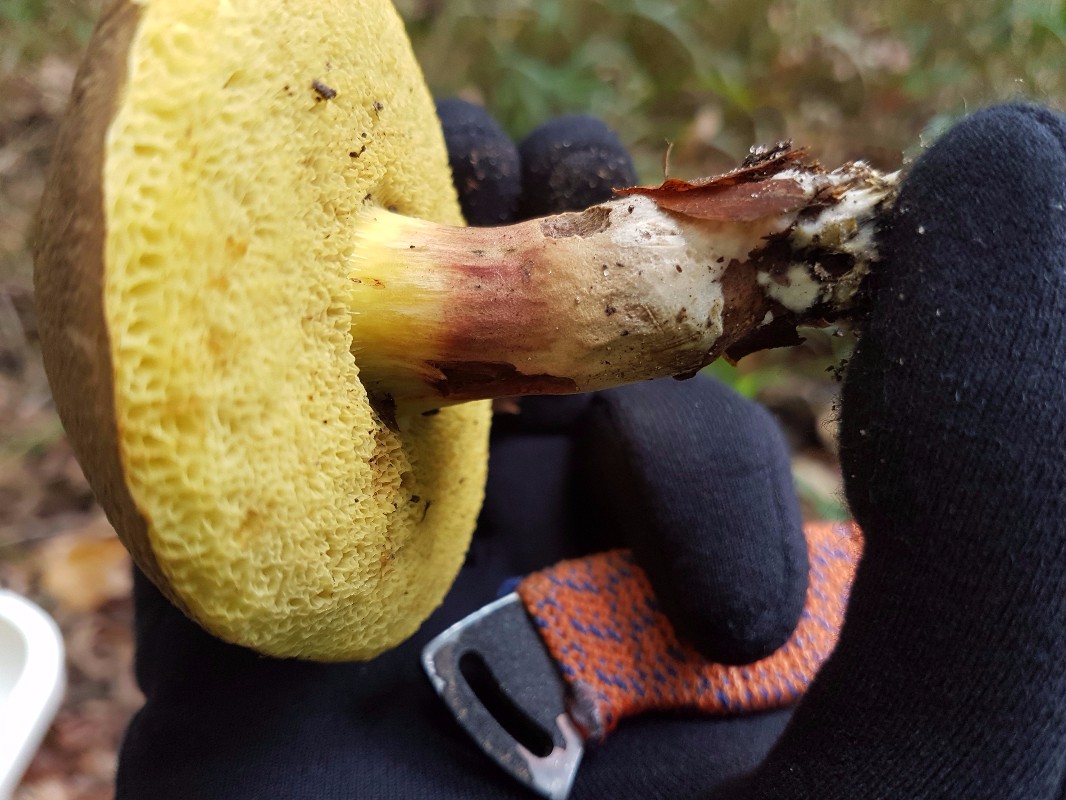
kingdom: Fungi
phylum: Basidiomycota
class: Agaricomycetes
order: Boletales
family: Boletaceae
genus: Xerocomellus
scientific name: Xerocomellus chrysenteron
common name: rødsprukken rørhat
